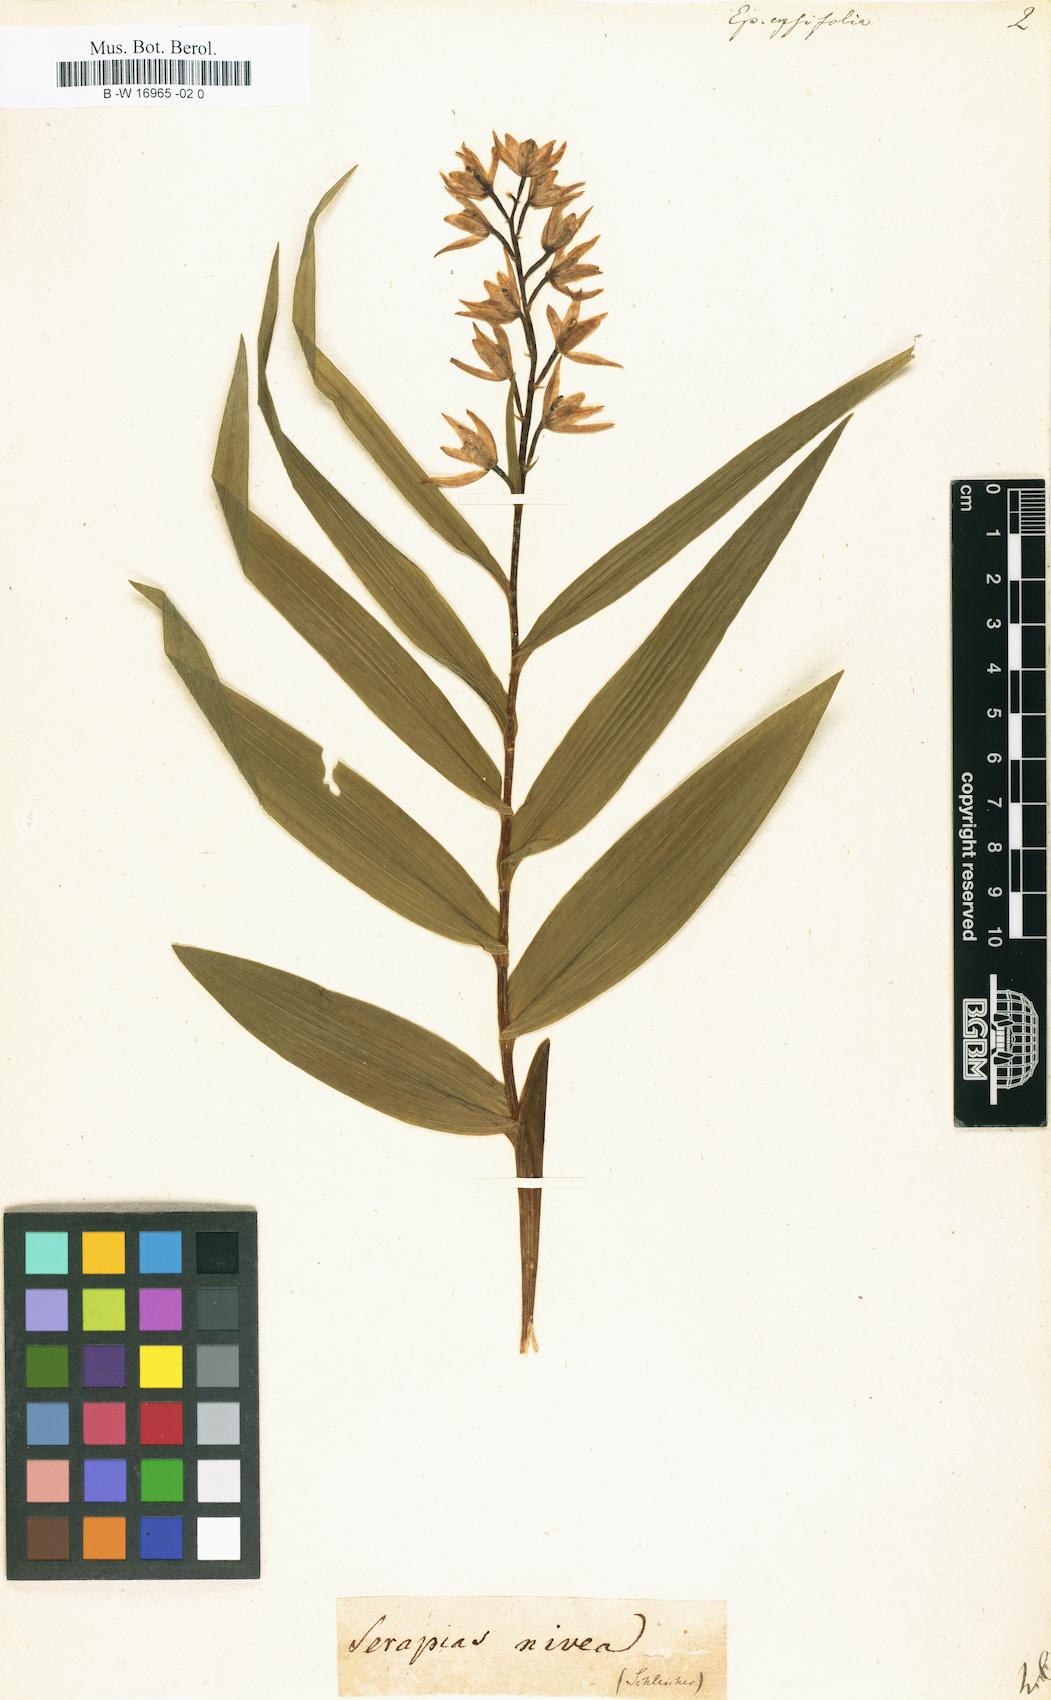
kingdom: Plantae
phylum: Tracheophyta
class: Liliopsida
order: Asparagales
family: Orchidaceae
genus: Cephalanthera
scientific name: Cephalanthera longifolia
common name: Narrow-leaved helleborine
